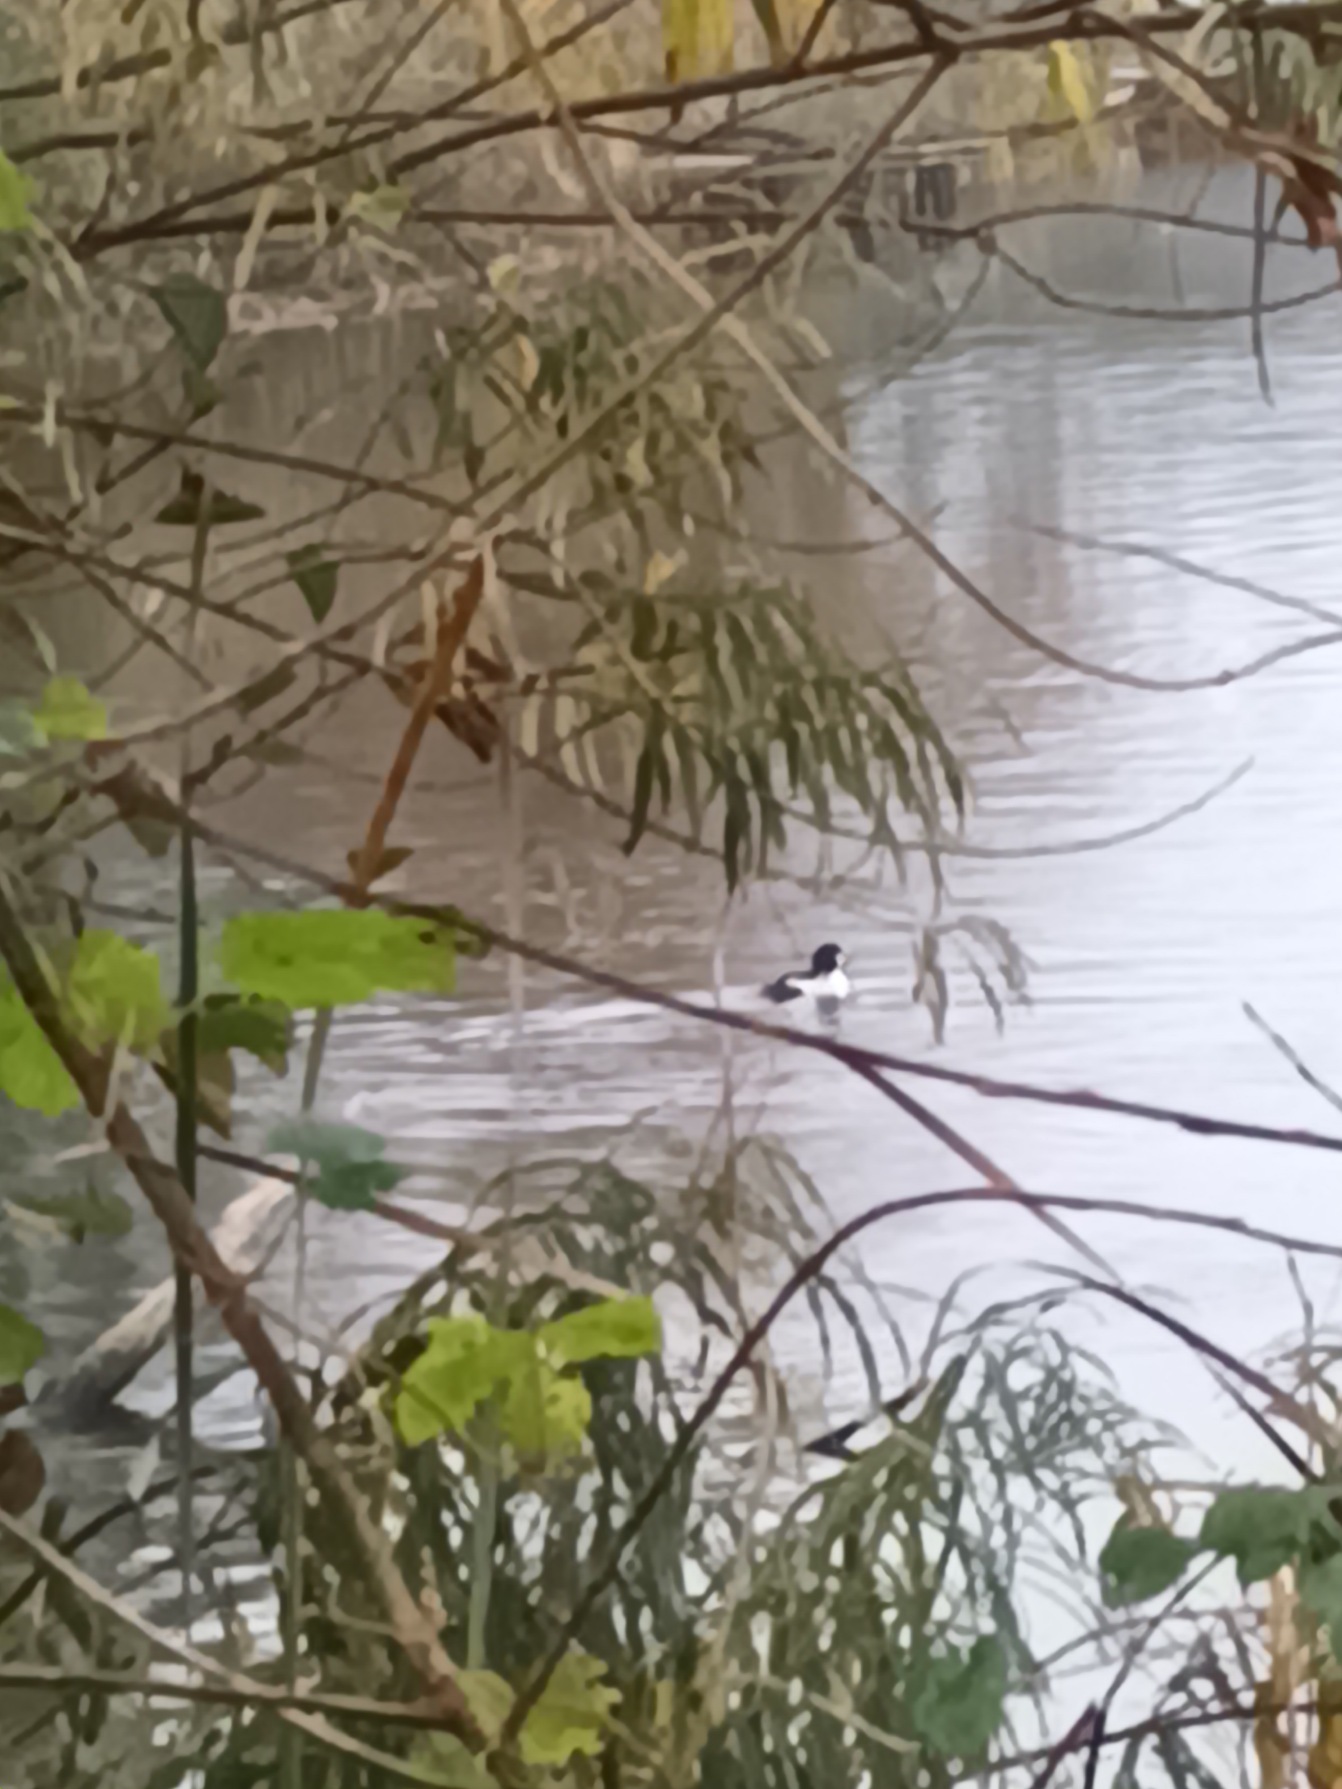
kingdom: Animalia
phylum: Chordata
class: Aves
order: Anseriformes
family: Anatidae
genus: Bucephala
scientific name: Bucephala clangula
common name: Hvinand
